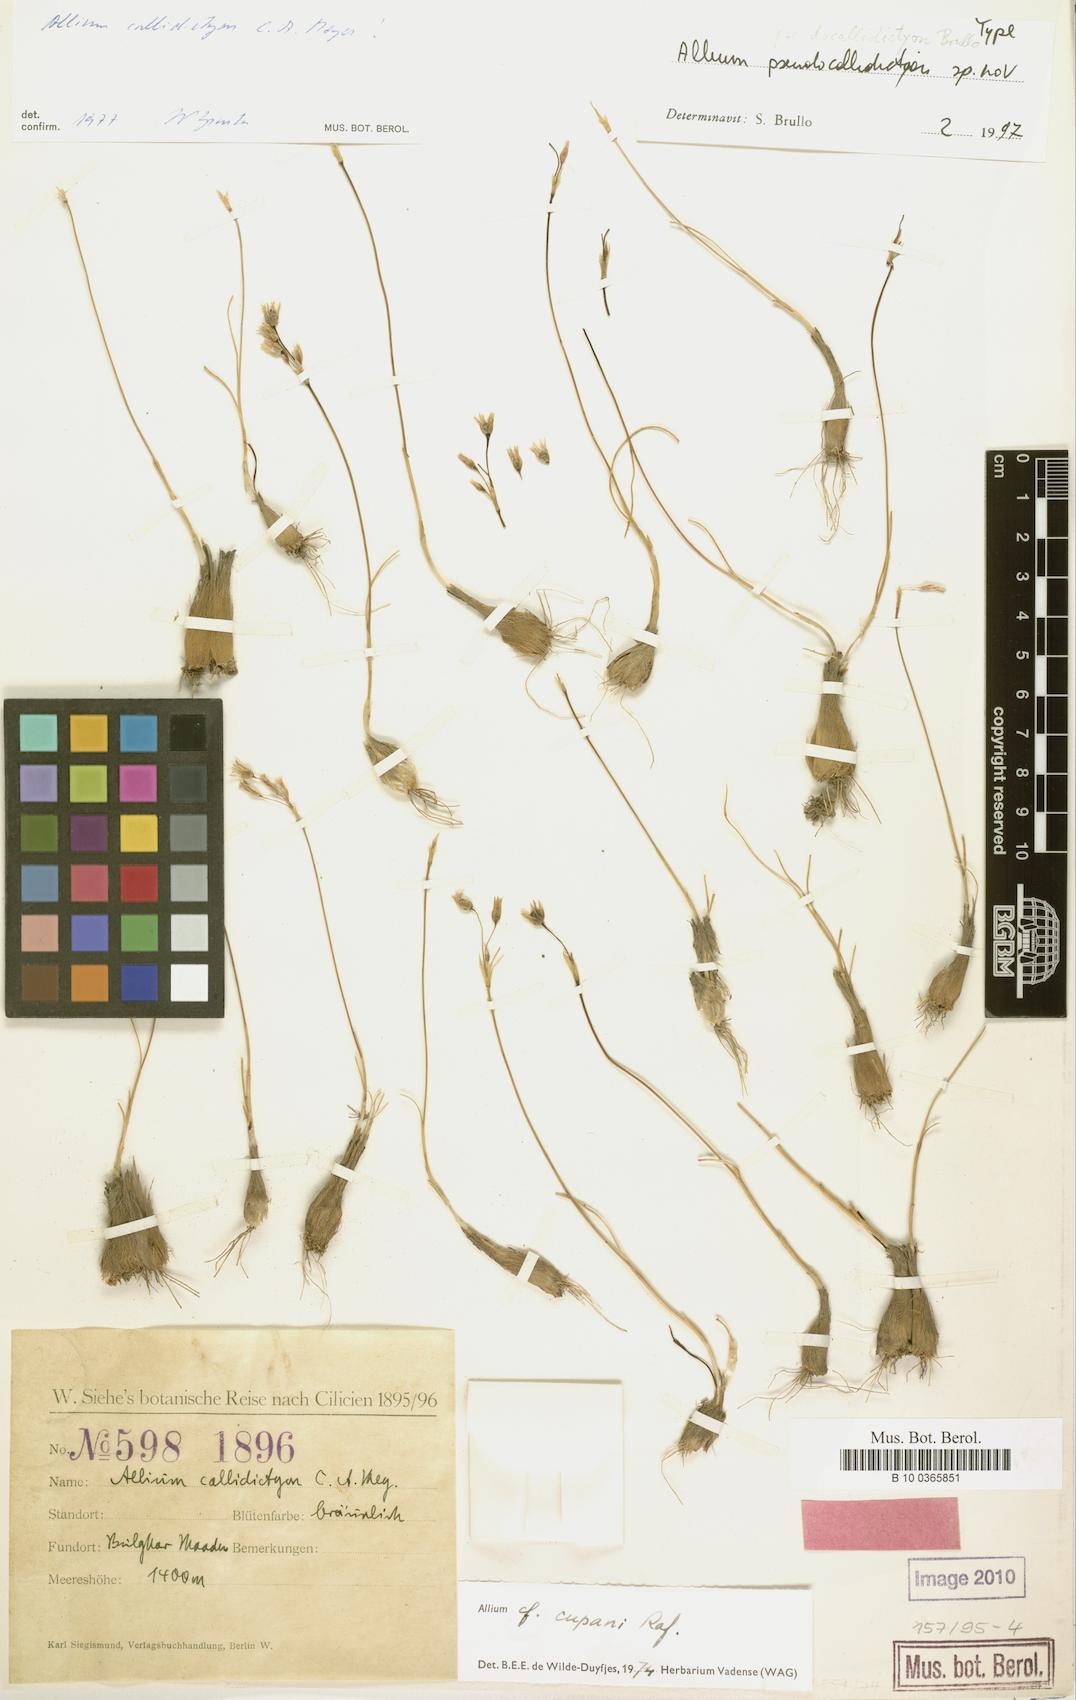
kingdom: Plantae
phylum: Tracheophyta
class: Liliopsida
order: Liliales
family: Liliaceae
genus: Allium
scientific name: Allium
